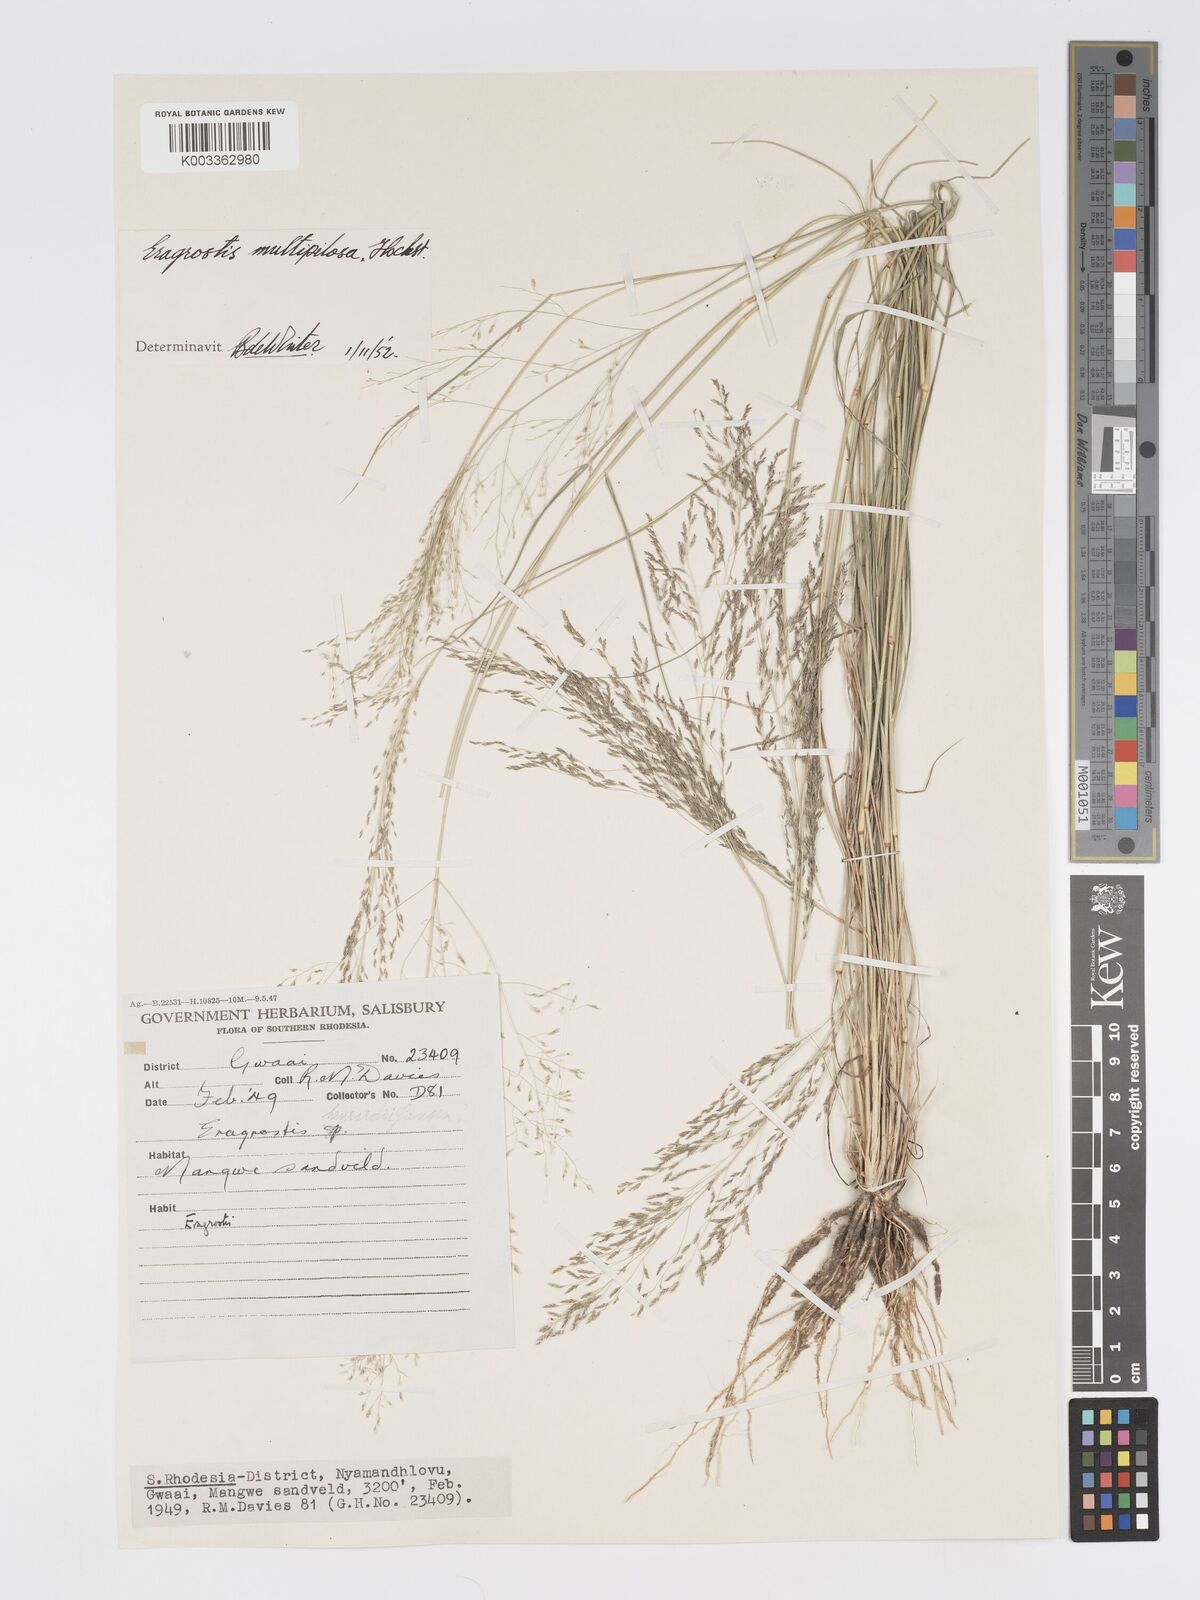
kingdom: Plantae
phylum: Tracheophyta
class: Liliopsida
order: Poales
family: Poaceae
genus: Eragrostis
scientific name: Eragrostis cylindriflora
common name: Cylinderflower lovegrass
